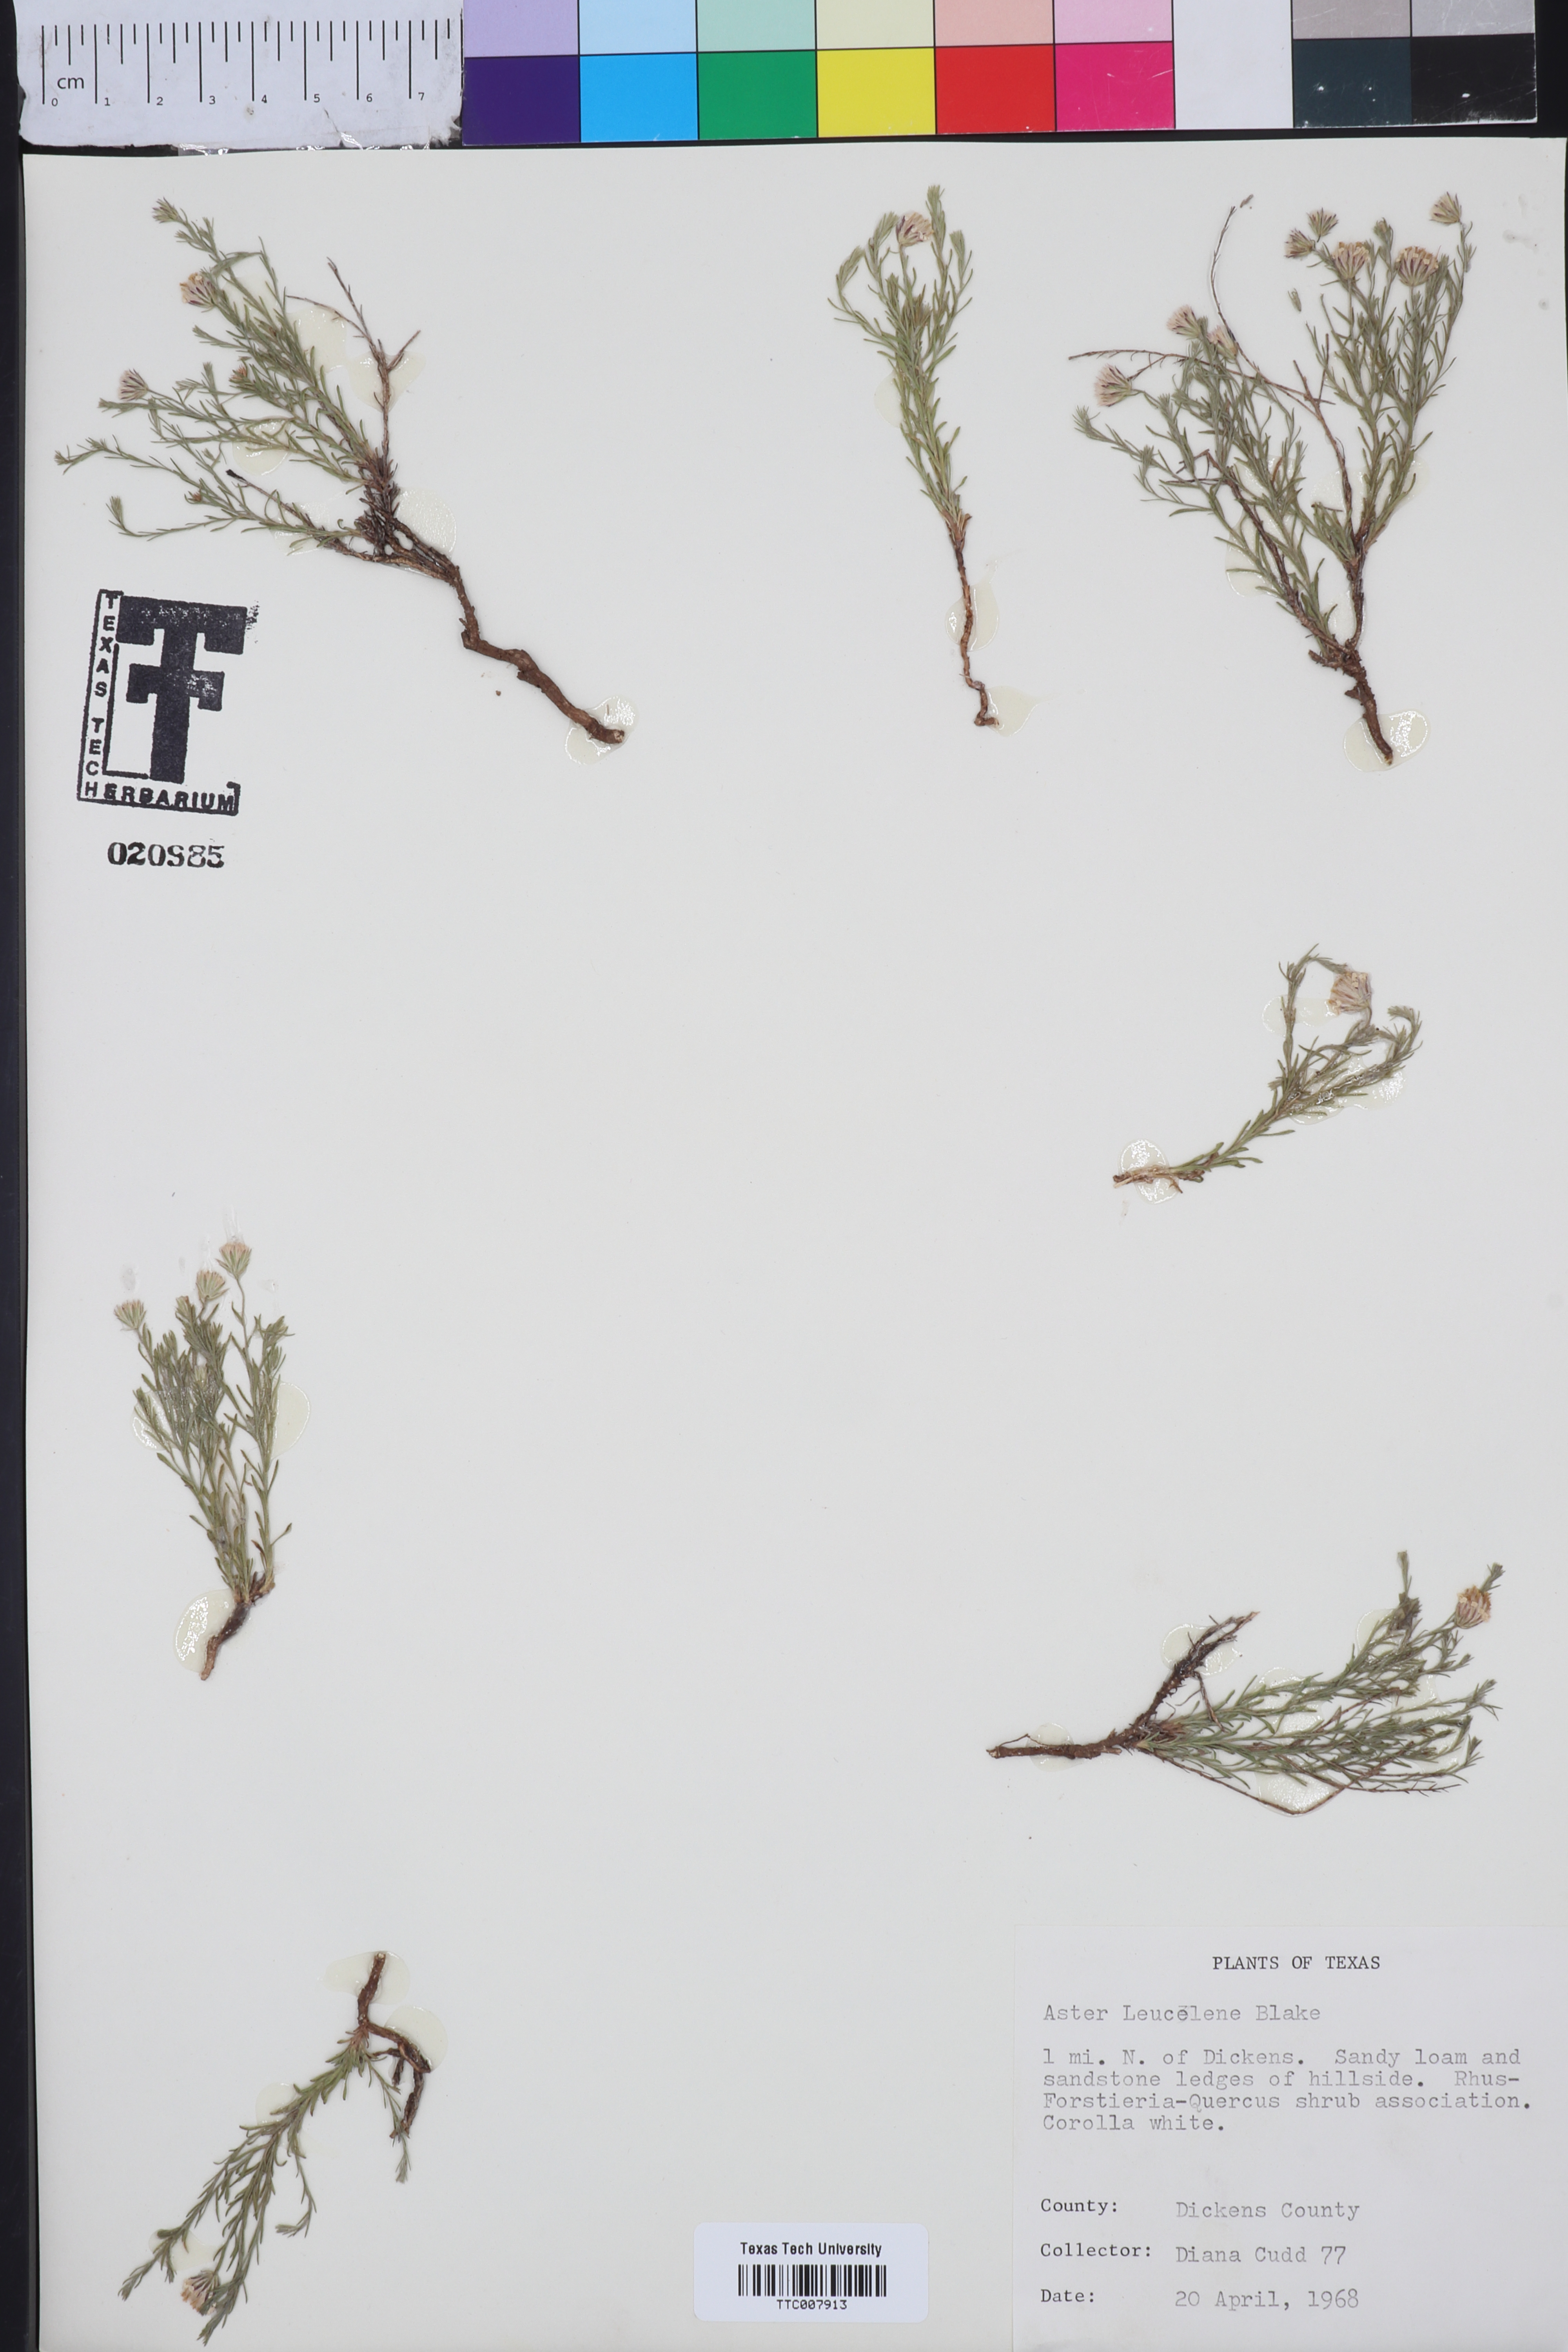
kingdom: Plantae
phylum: Tracheophyta
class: Magnoliopsida
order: Asterales
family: Asteraceae
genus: Chaetopappa
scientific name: Chaetopappa ericoides
